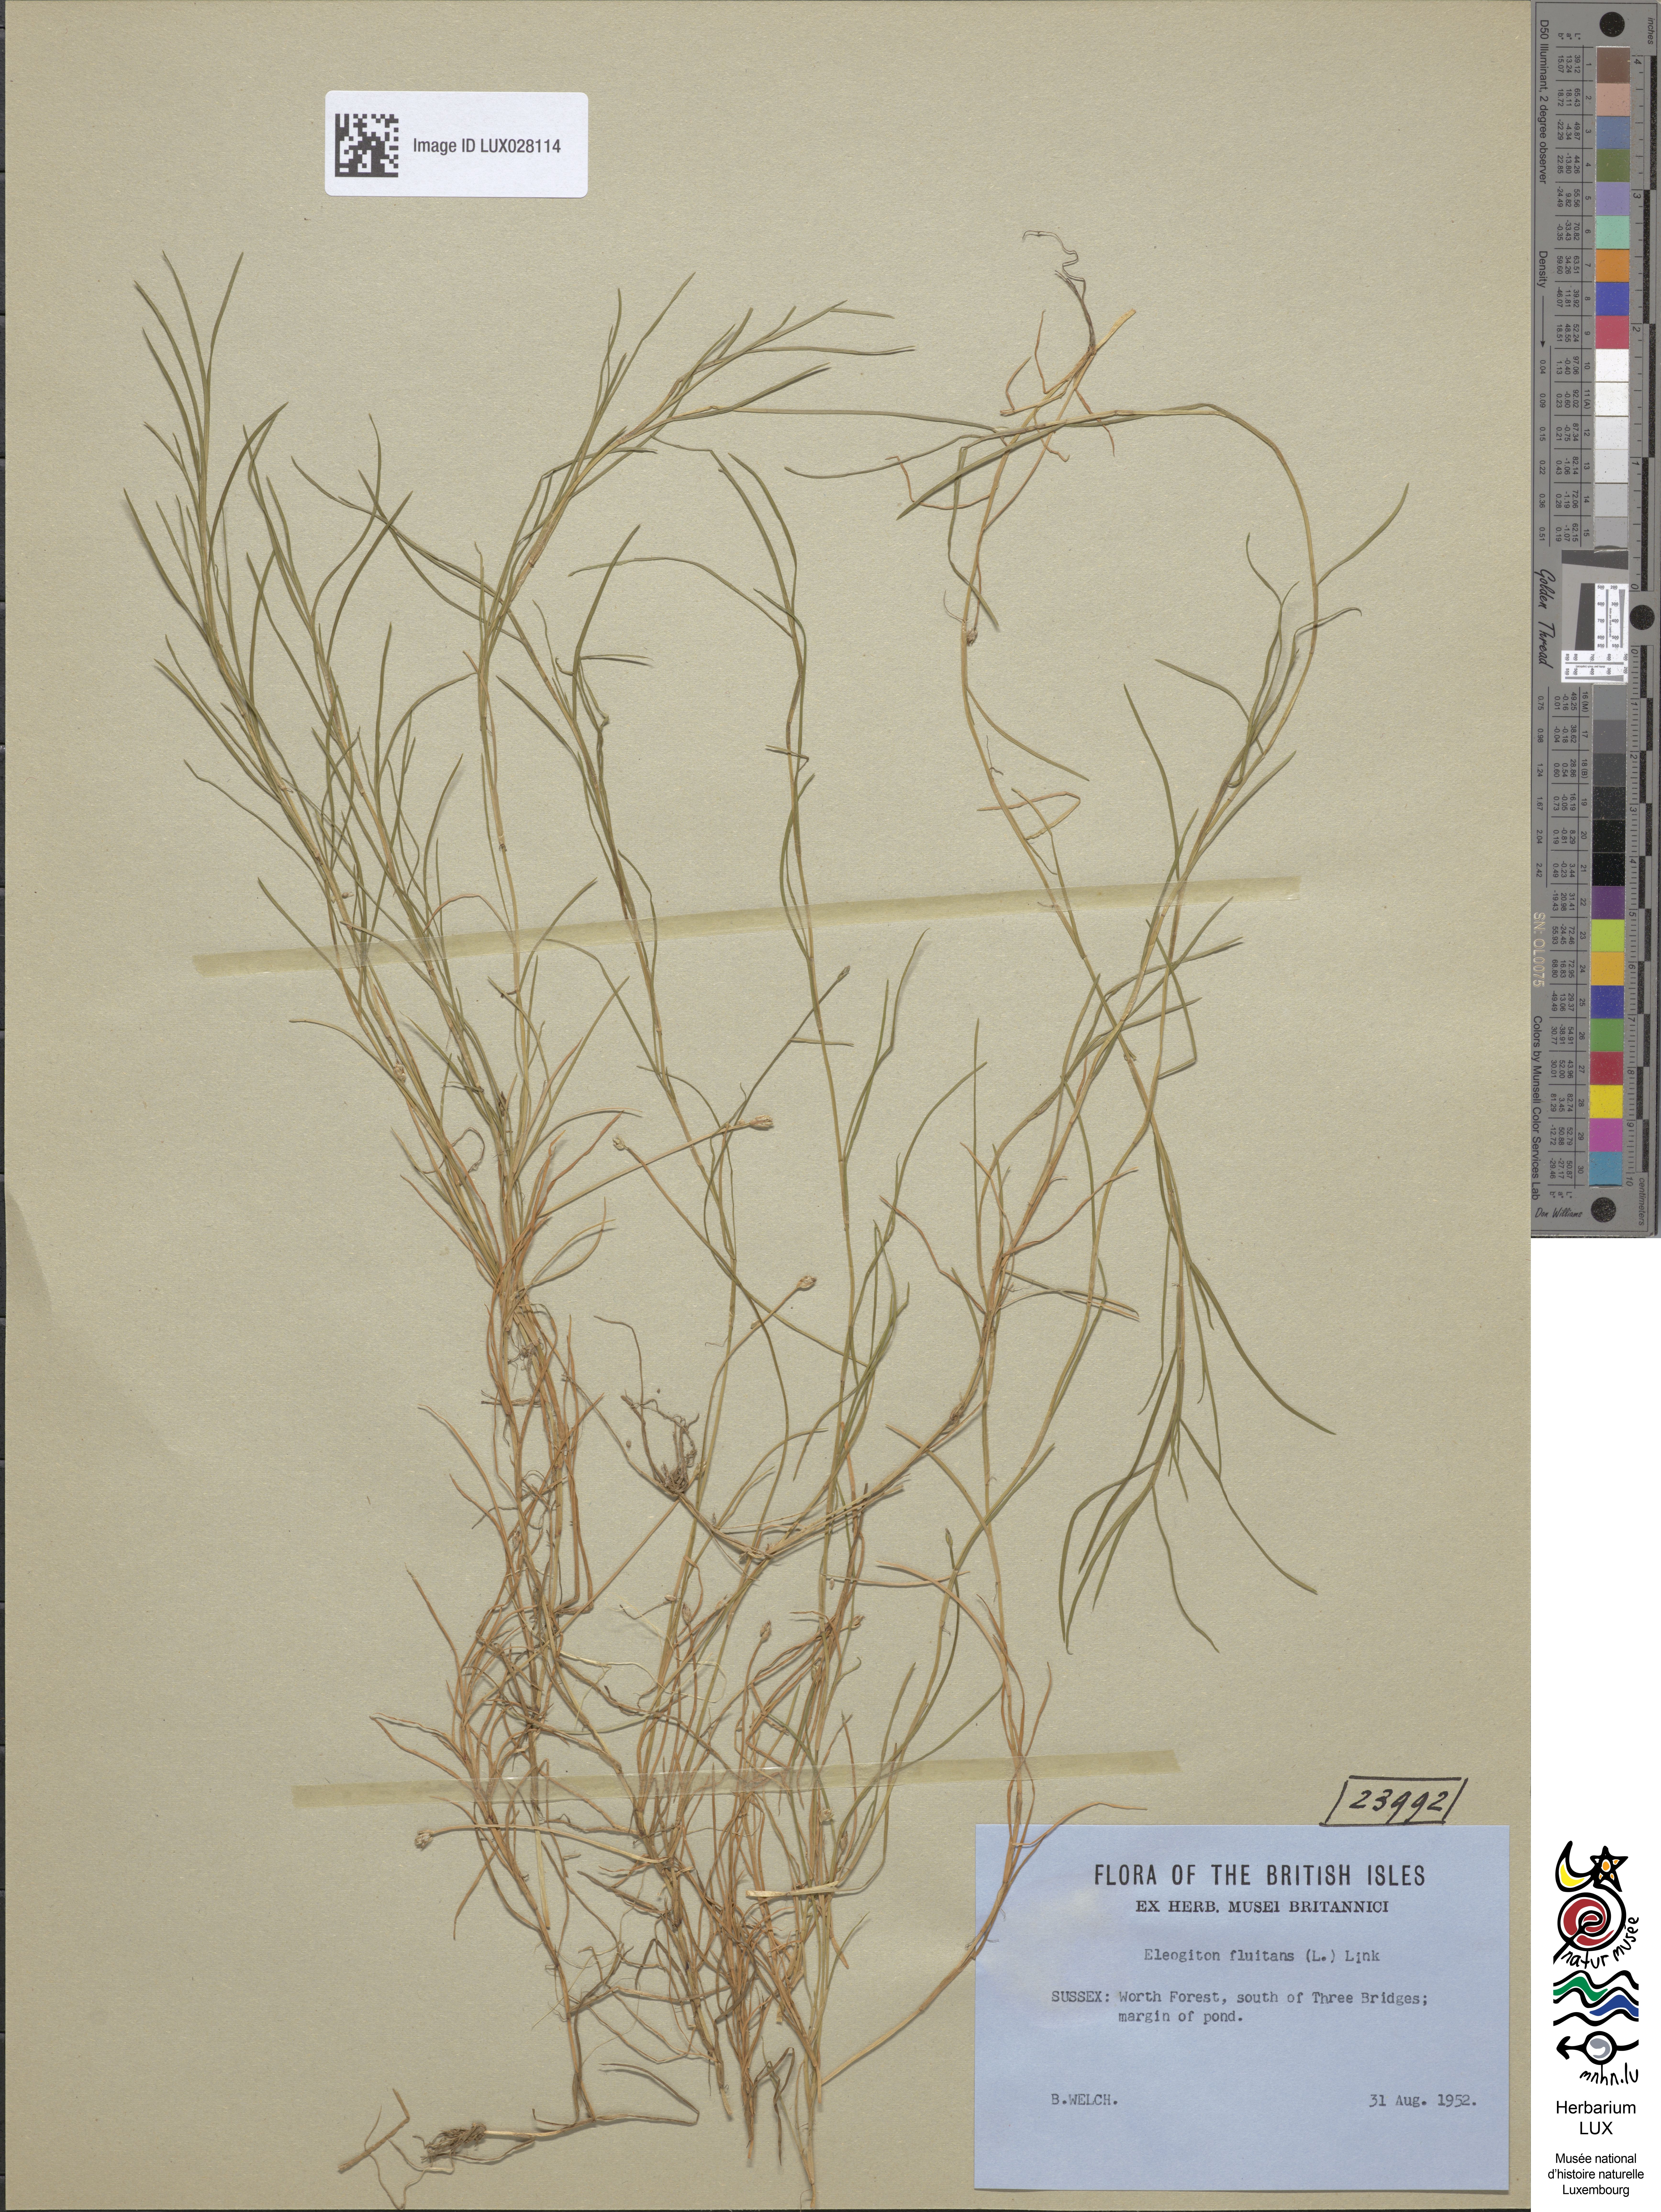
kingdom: Plantae
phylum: Tracheophyta
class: Liliopsida
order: Poales
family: Cyperaceae
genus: Isolepis
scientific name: Isolepis fluitans
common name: Floating club-rush
